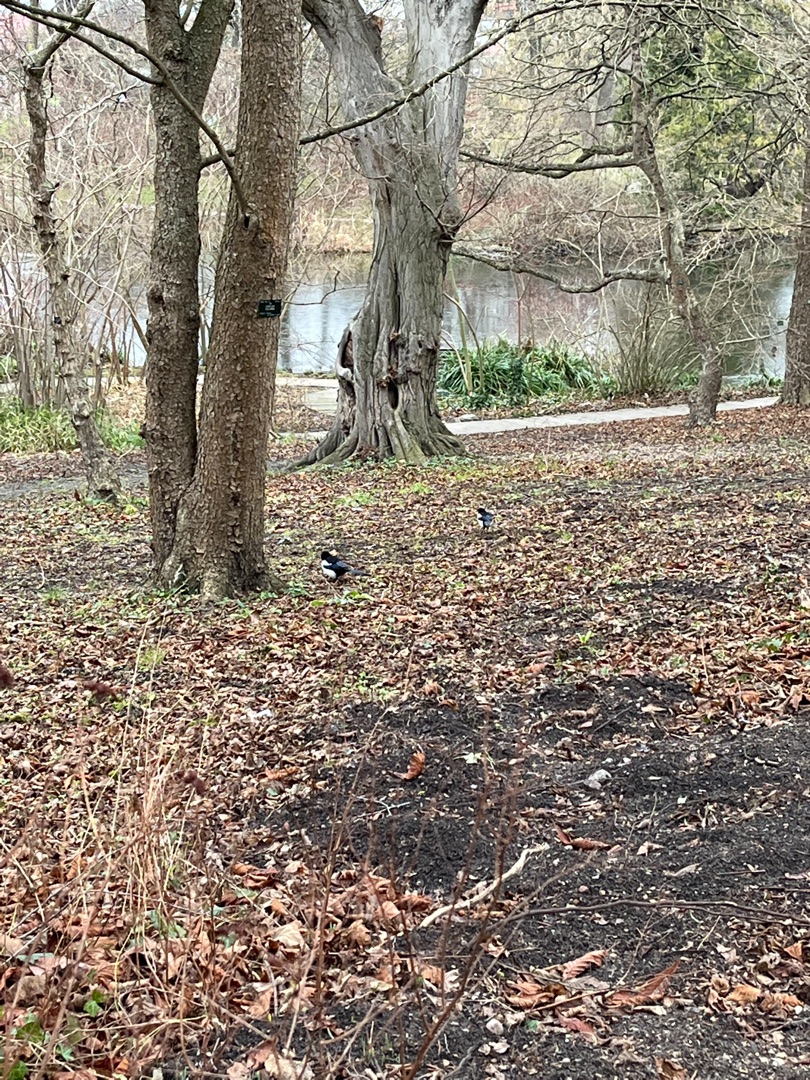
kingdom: Animalia
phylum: Chordata
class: Aves
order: Passeriformes
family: Corvidae
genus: Pica
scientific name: Pica pica
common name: Husskade
